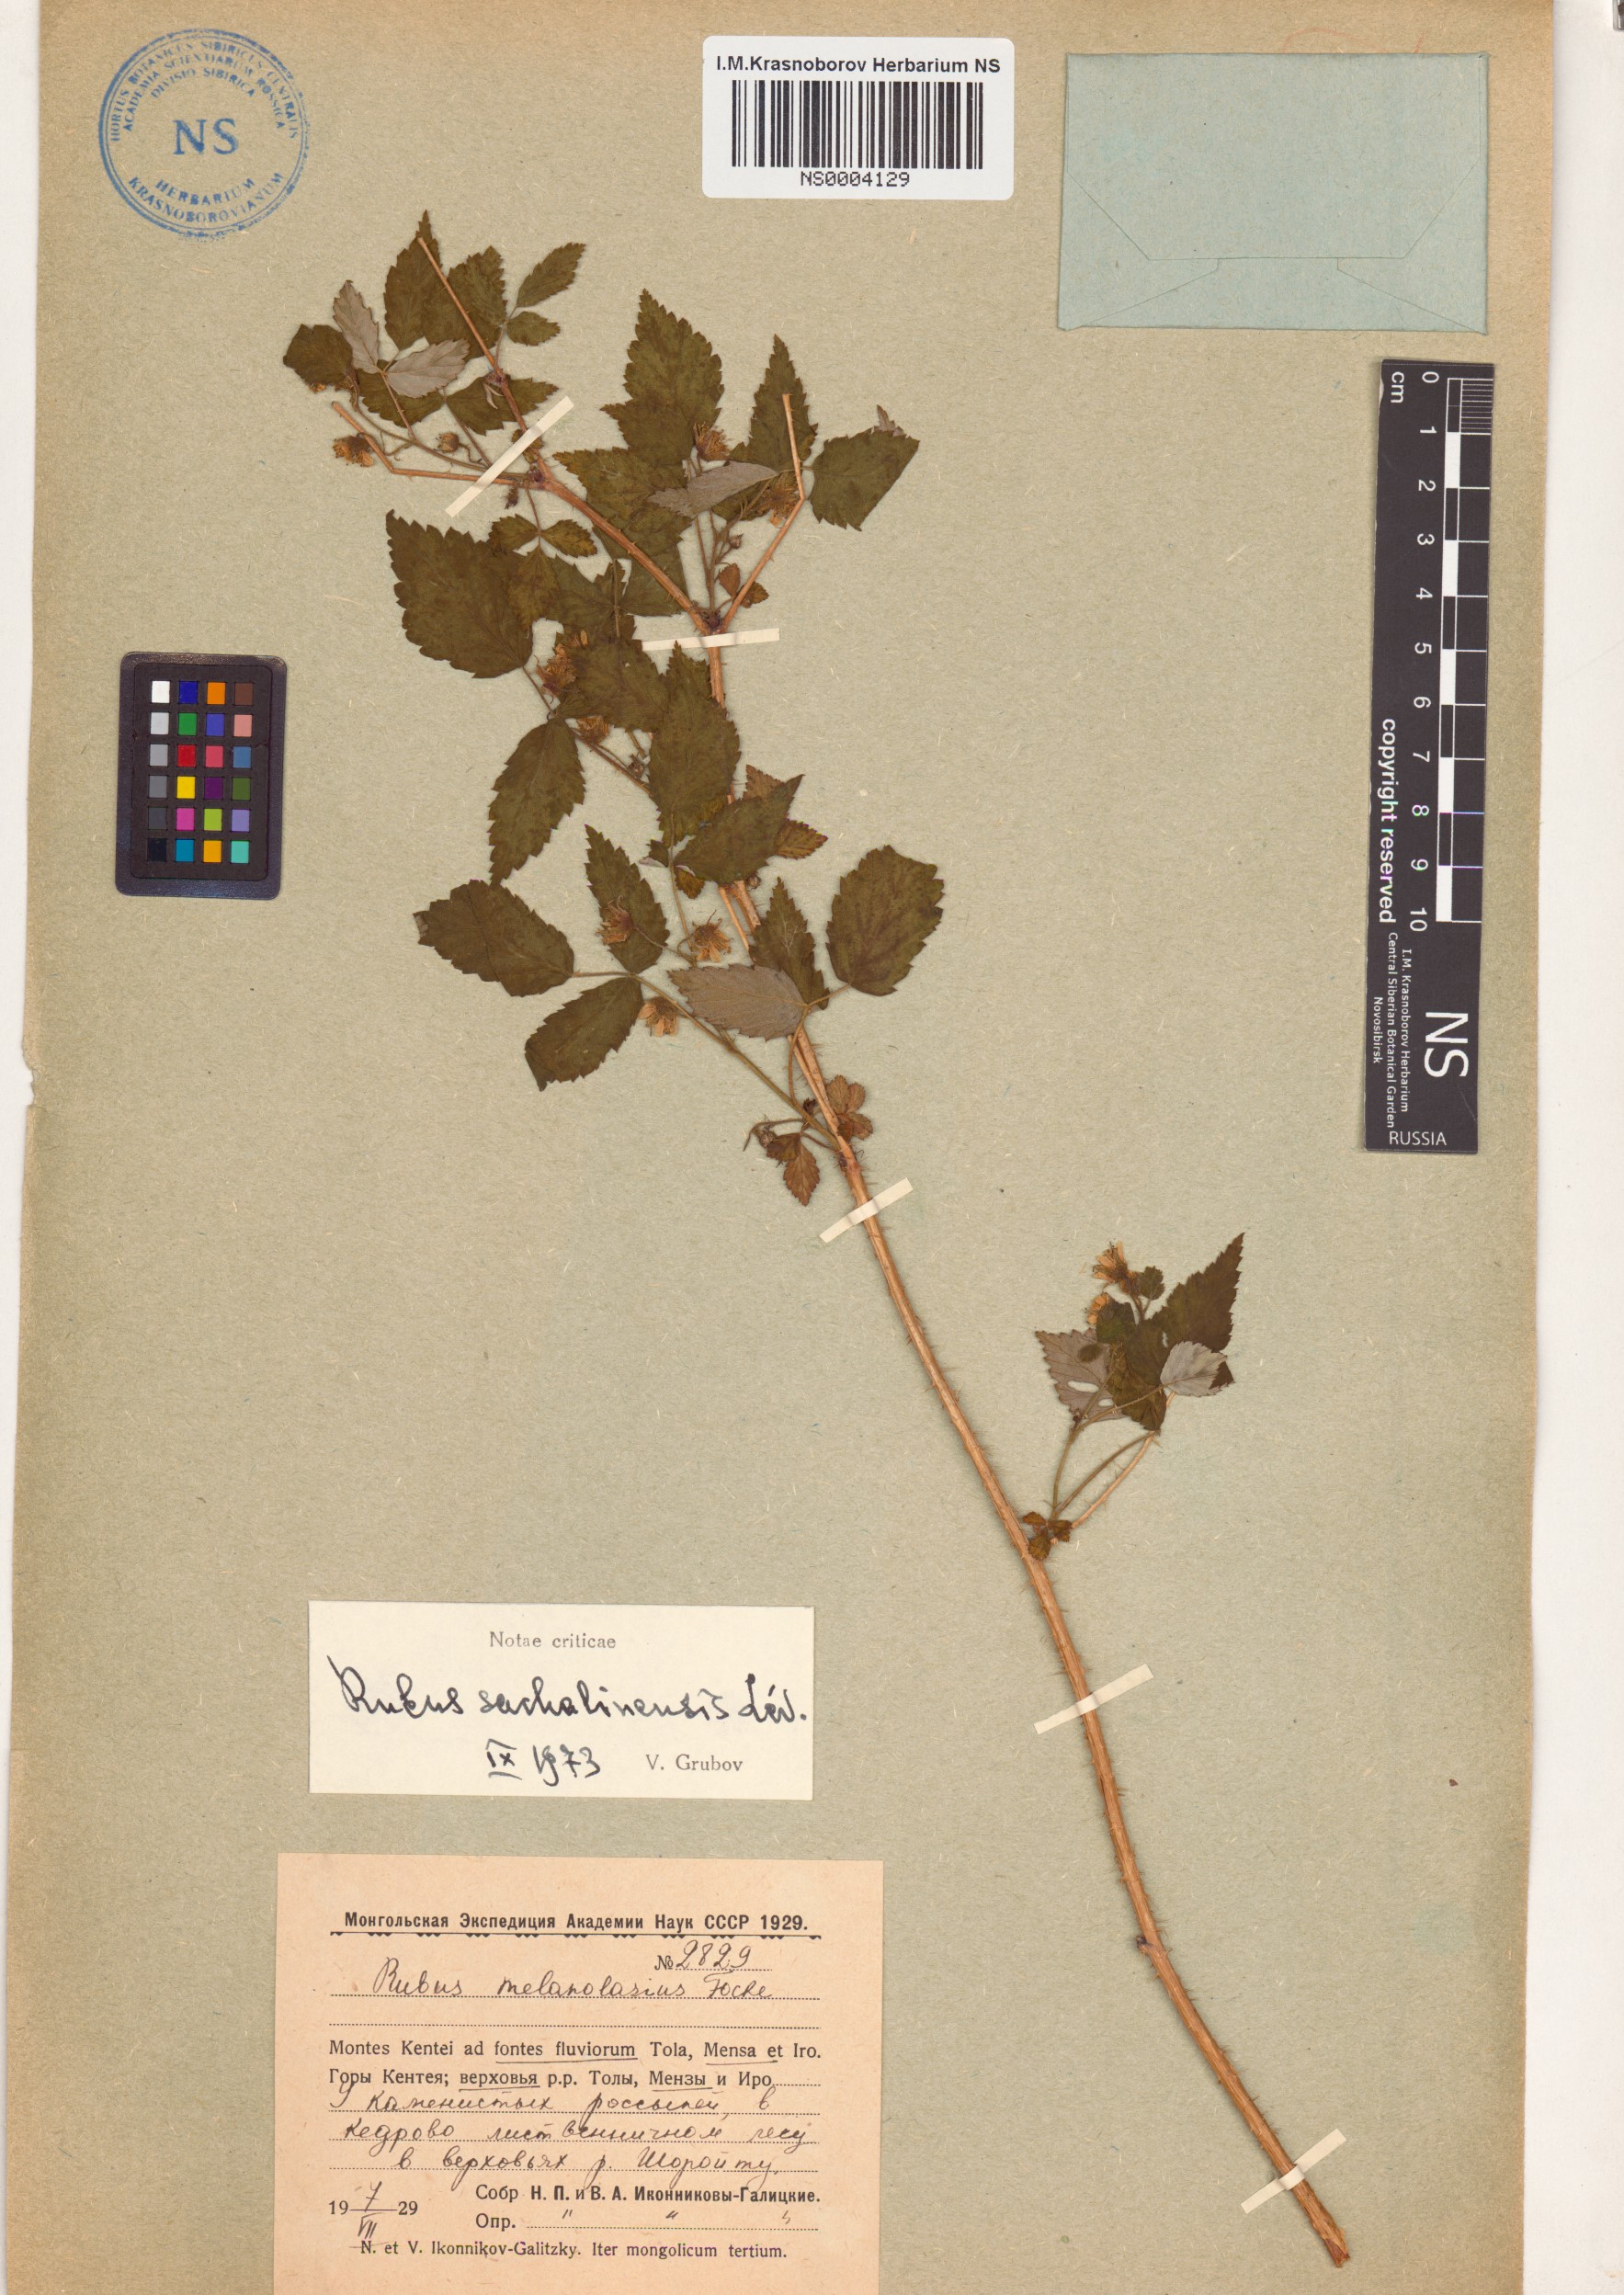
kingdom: Plantae
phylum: Tracheophyta
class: Magnoliopsida
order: Rosales
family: Rosaceae
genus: Rubus
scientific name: Rubus sachalinensis
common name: Red raspberry
